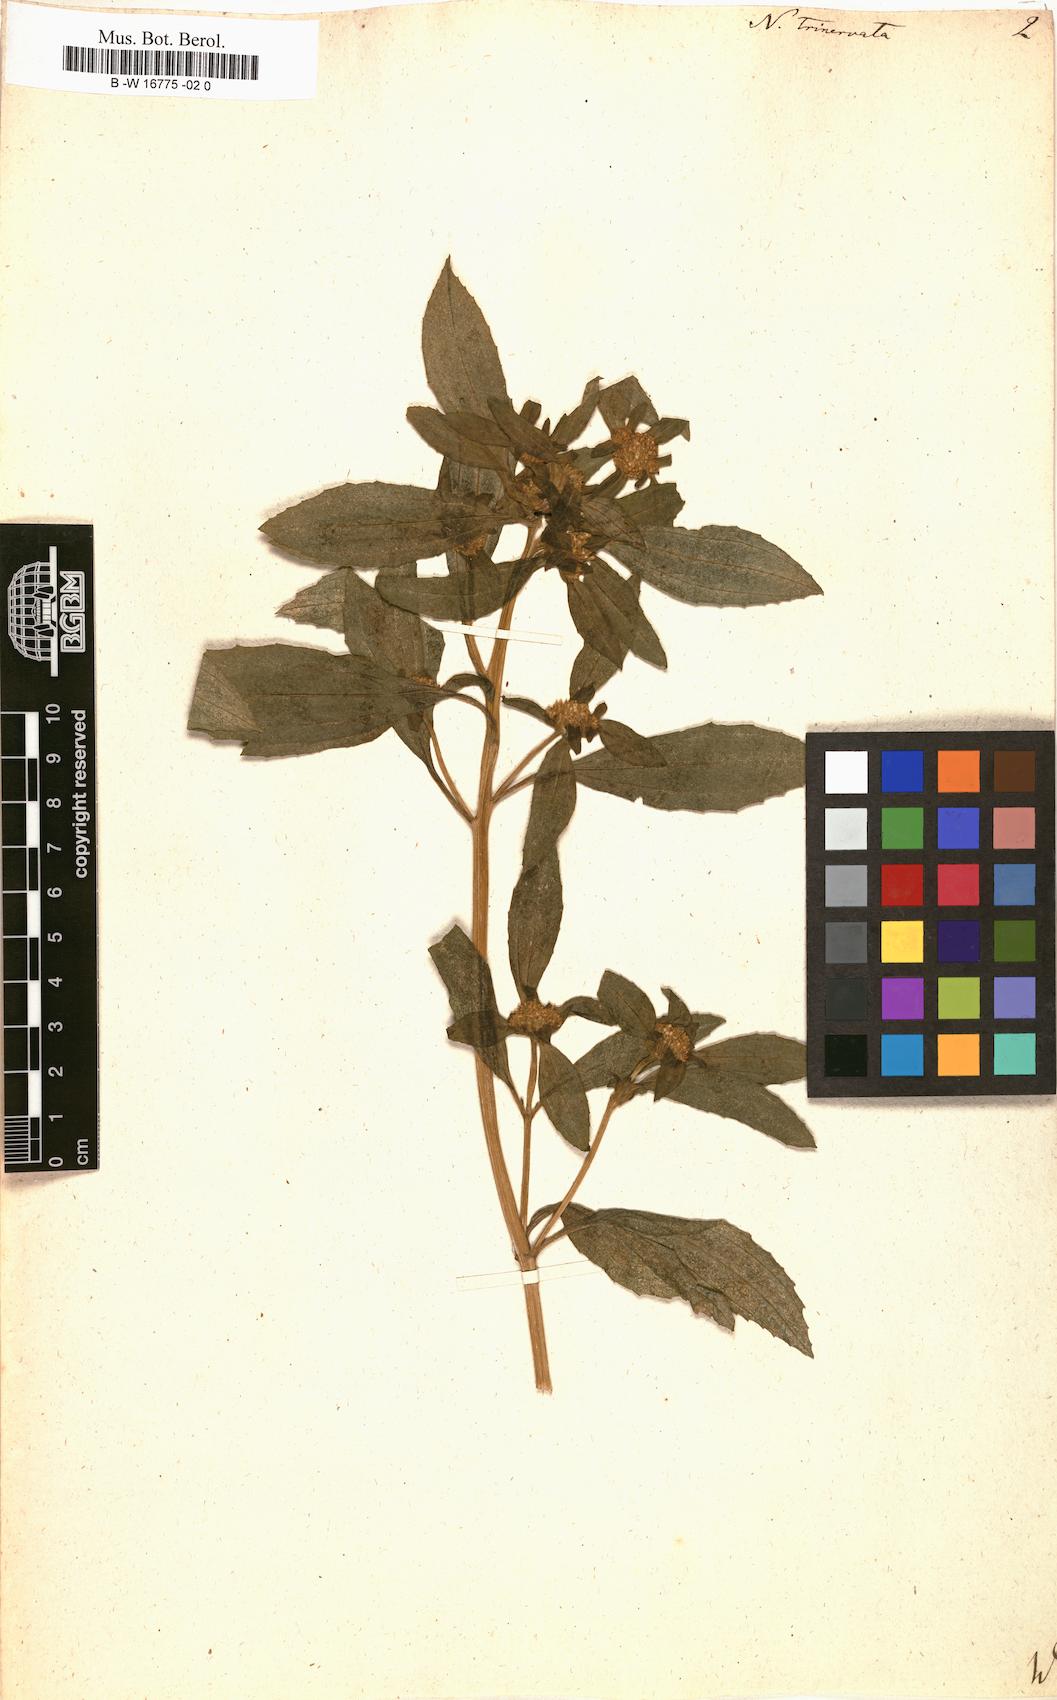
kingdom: Plantae
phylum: Tracheophyta
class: Magnoliopsida
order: Asterales
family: Asteraceae
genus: Flaveria
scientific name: Flaveria trinervia
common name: Clustered yellowtops
